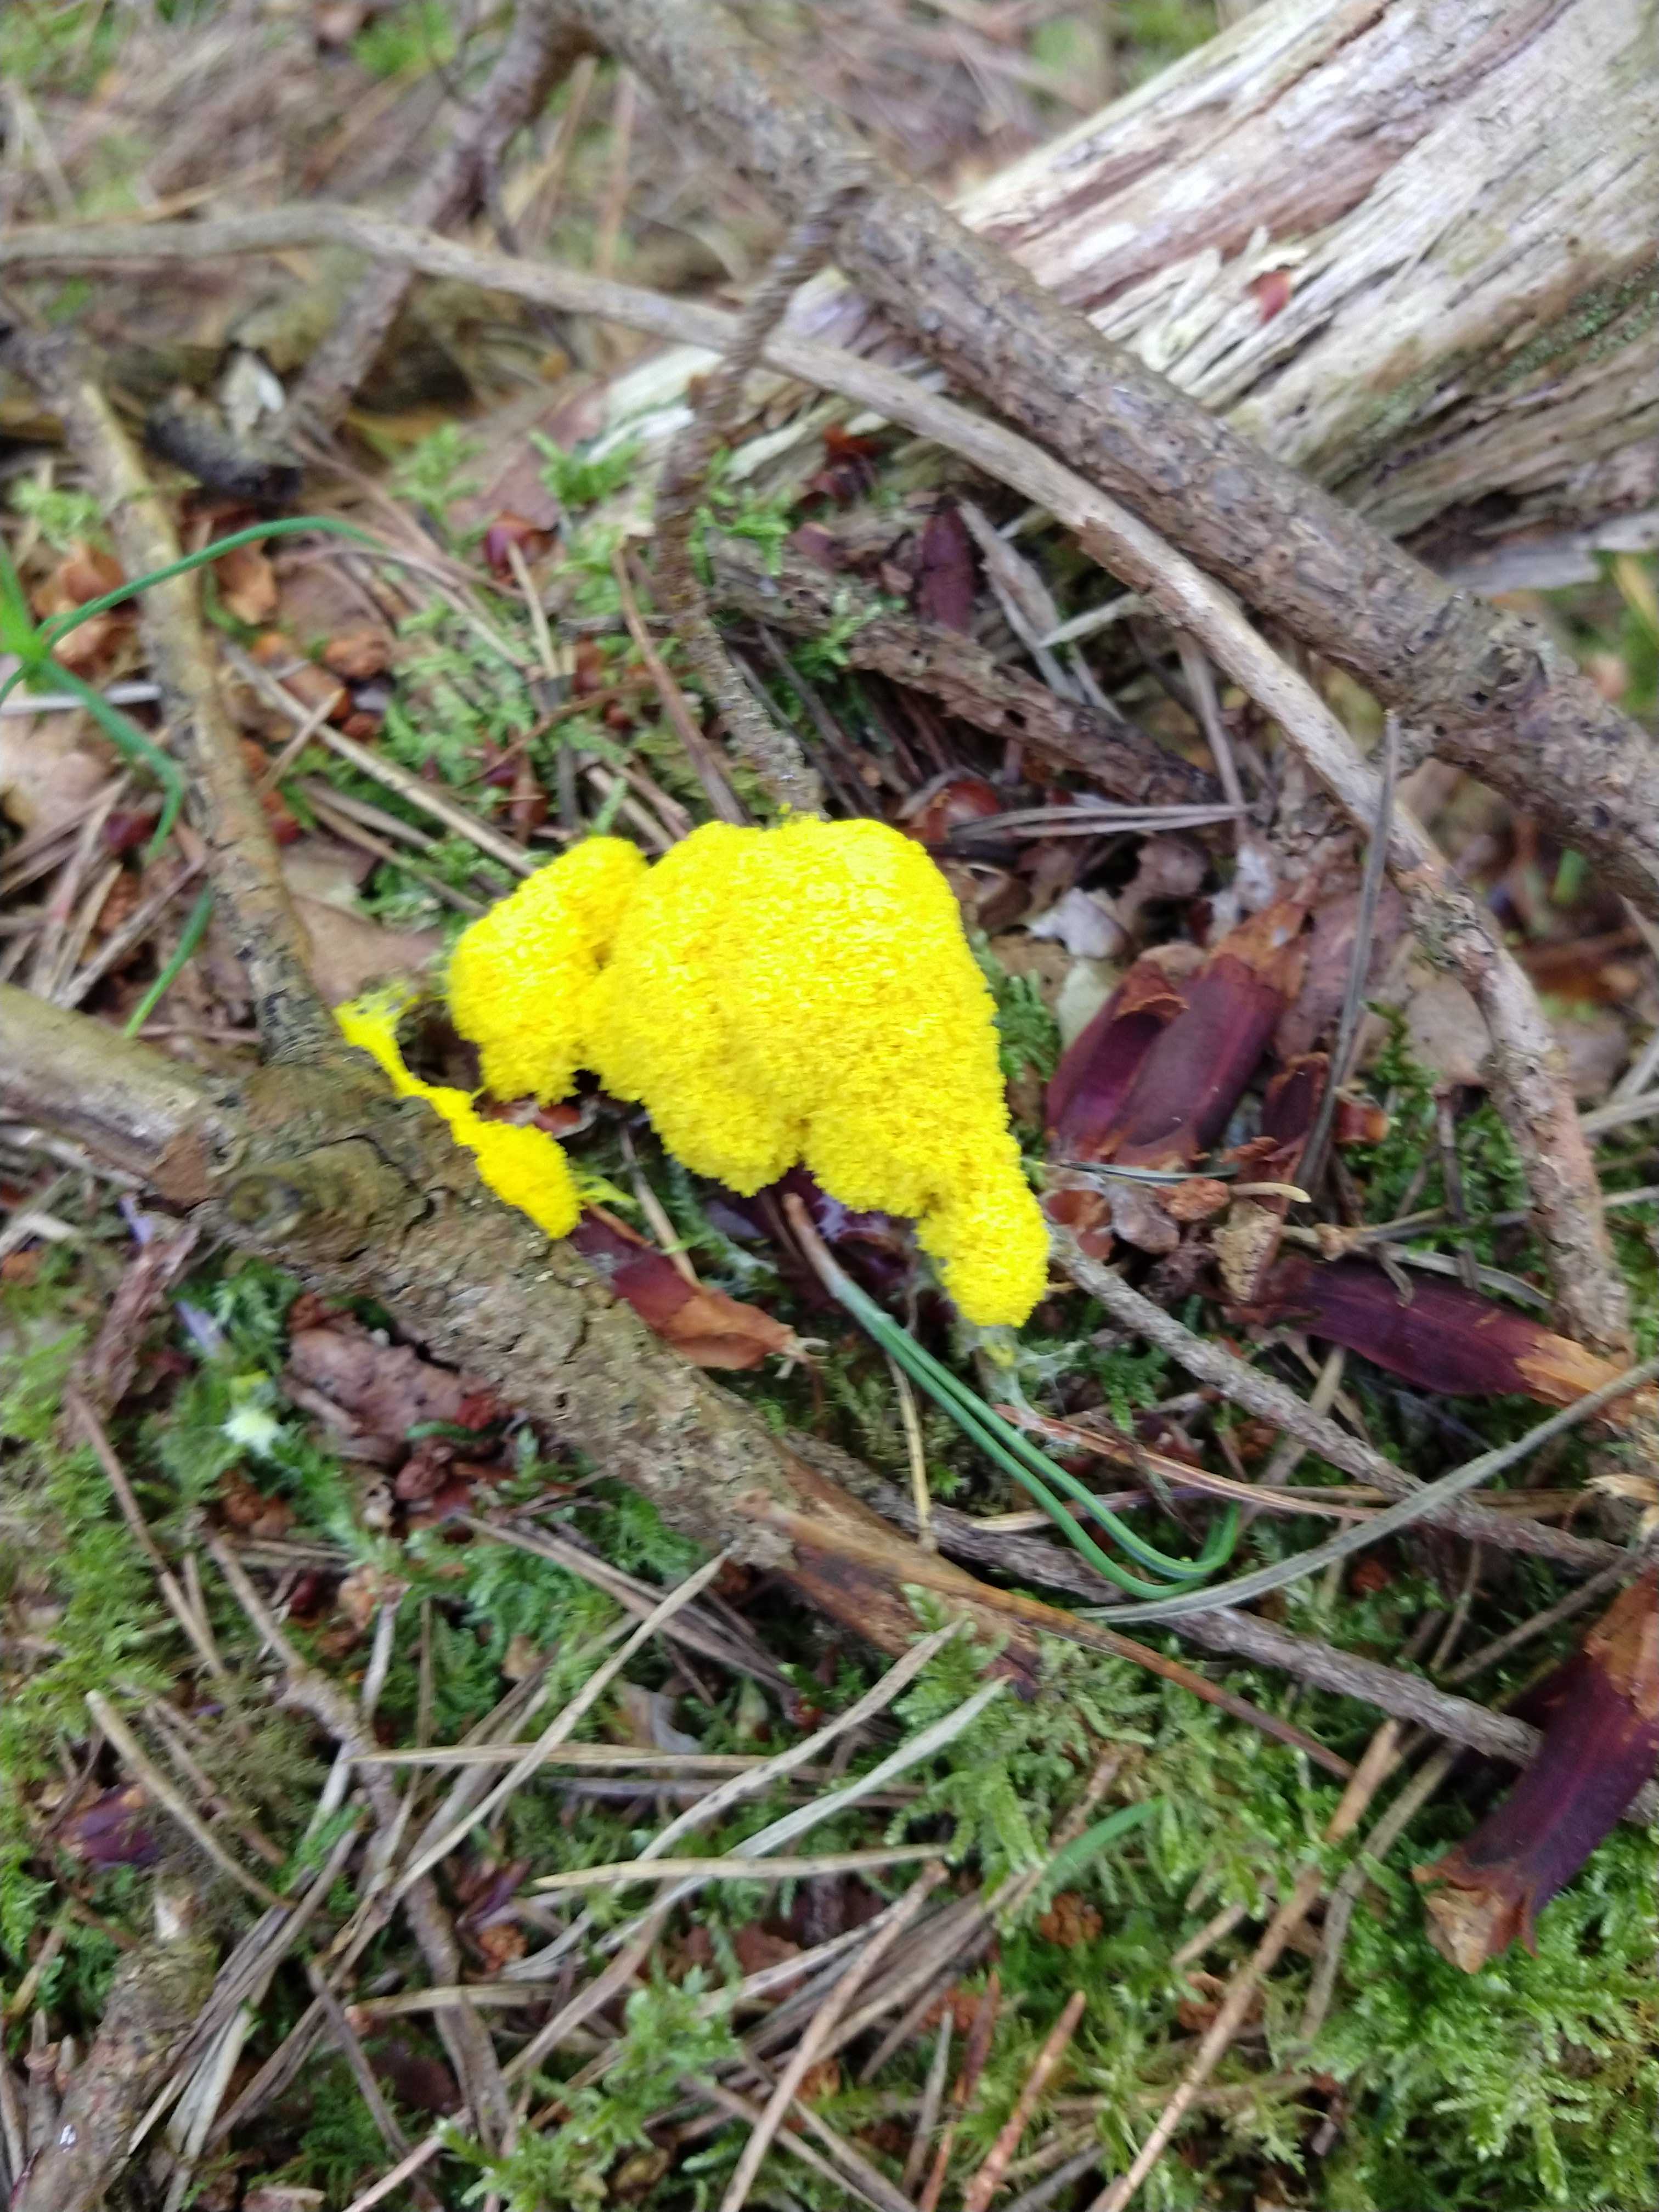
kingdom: Protozoa
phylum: Mycetozoa
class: Myxomycetes
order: Physarales
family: Physaraceae
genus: Fuligo
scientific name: Fuligo septica
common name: gul troldsmør
